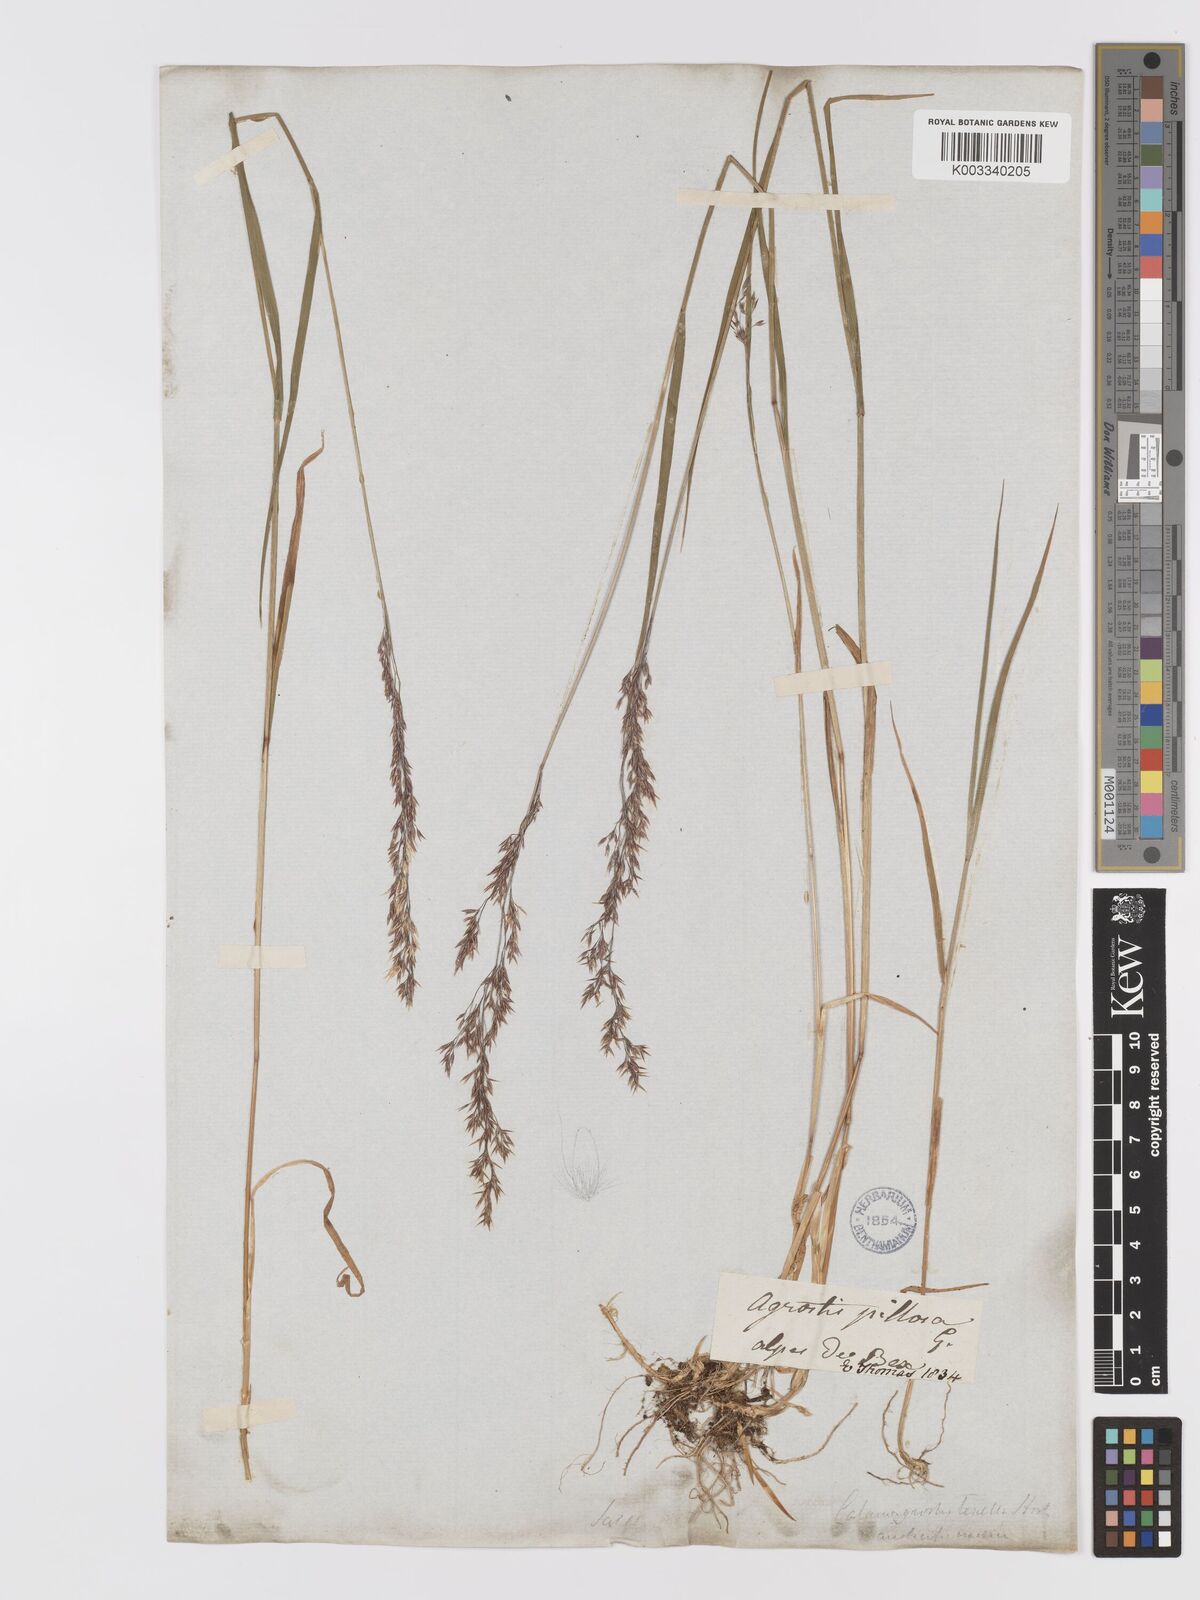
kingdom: Plantae
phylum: Tracheophyta
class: Liliopsida
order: Poales
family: Poaceae
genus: Agrostis
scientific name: Agrostis schraderiana
